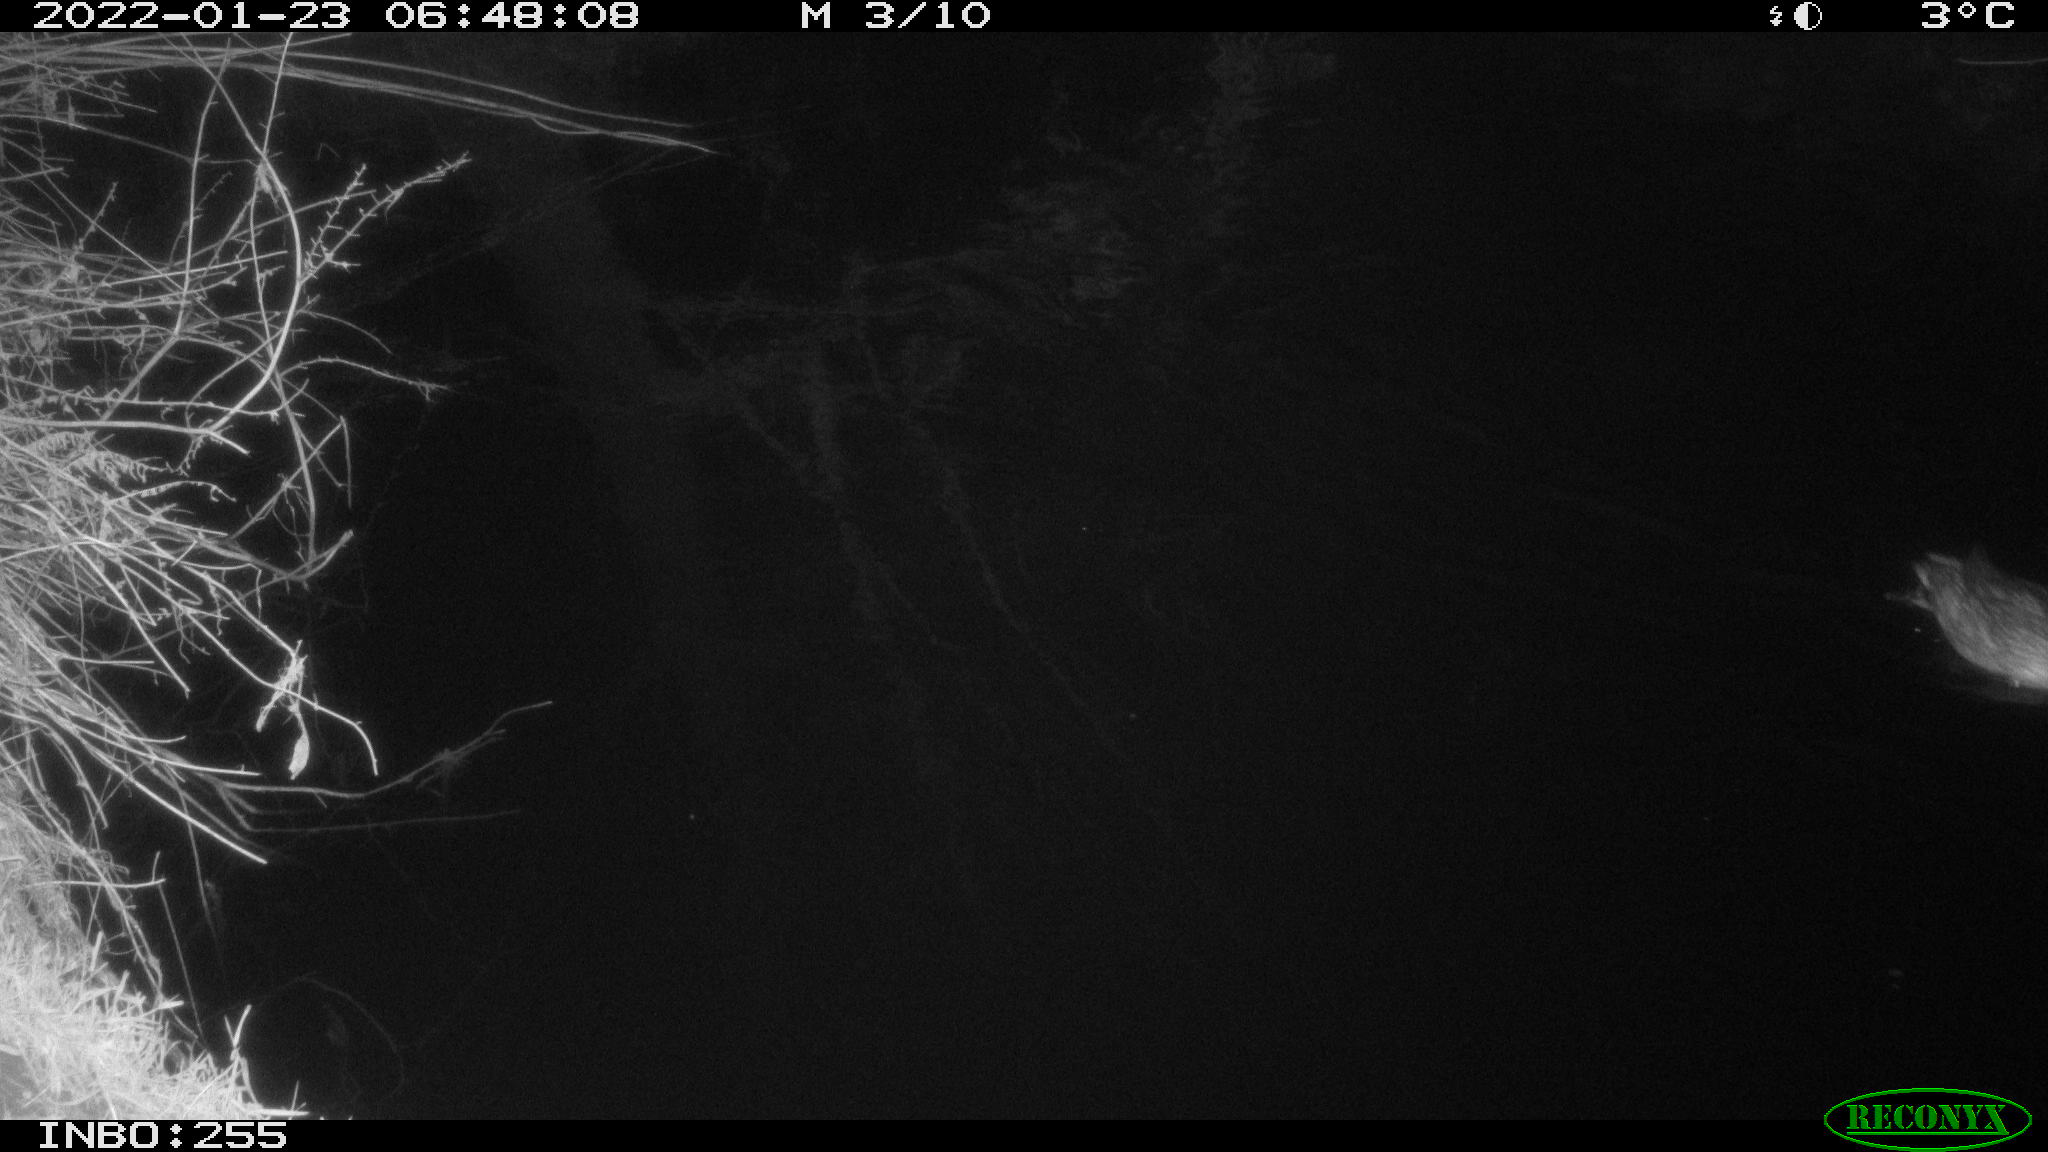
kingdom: Animalia
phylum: Chordata
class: Aves
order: Anseriformes
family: Anatidae
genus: Anas
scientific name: Anas
